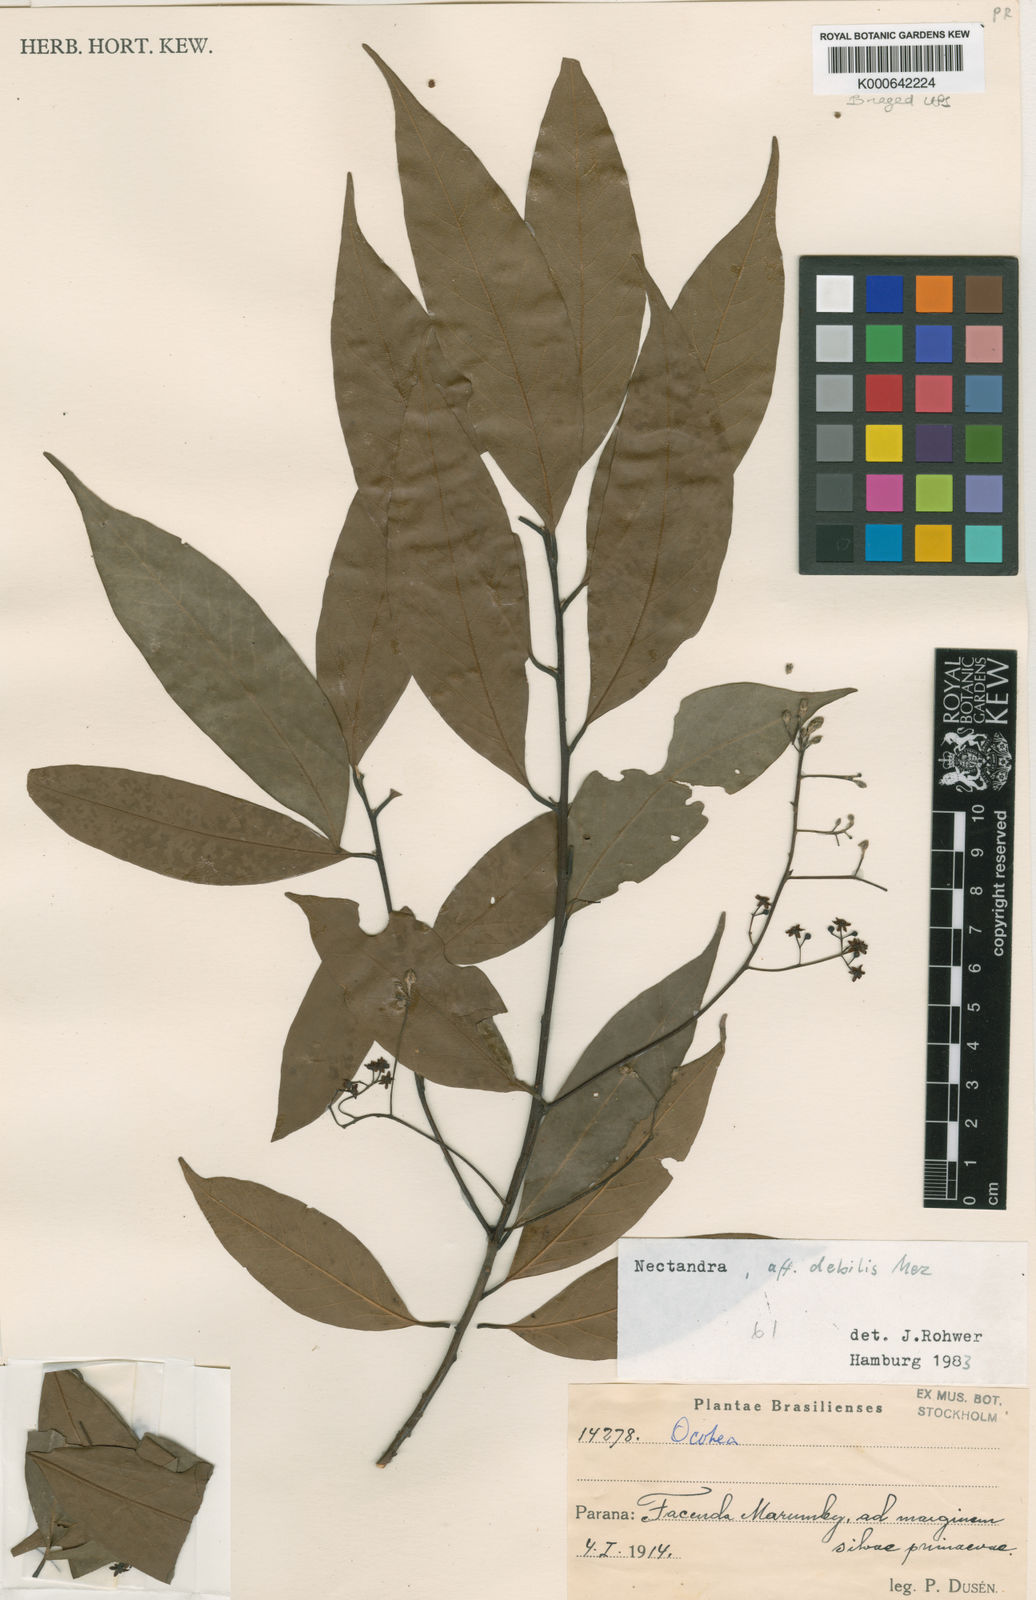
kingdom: Plantae
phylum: Tracheophyta
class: Magnoliopsida
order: Laurales
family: Lauraceae
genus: Nectandra
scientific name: Nectandra debilis
